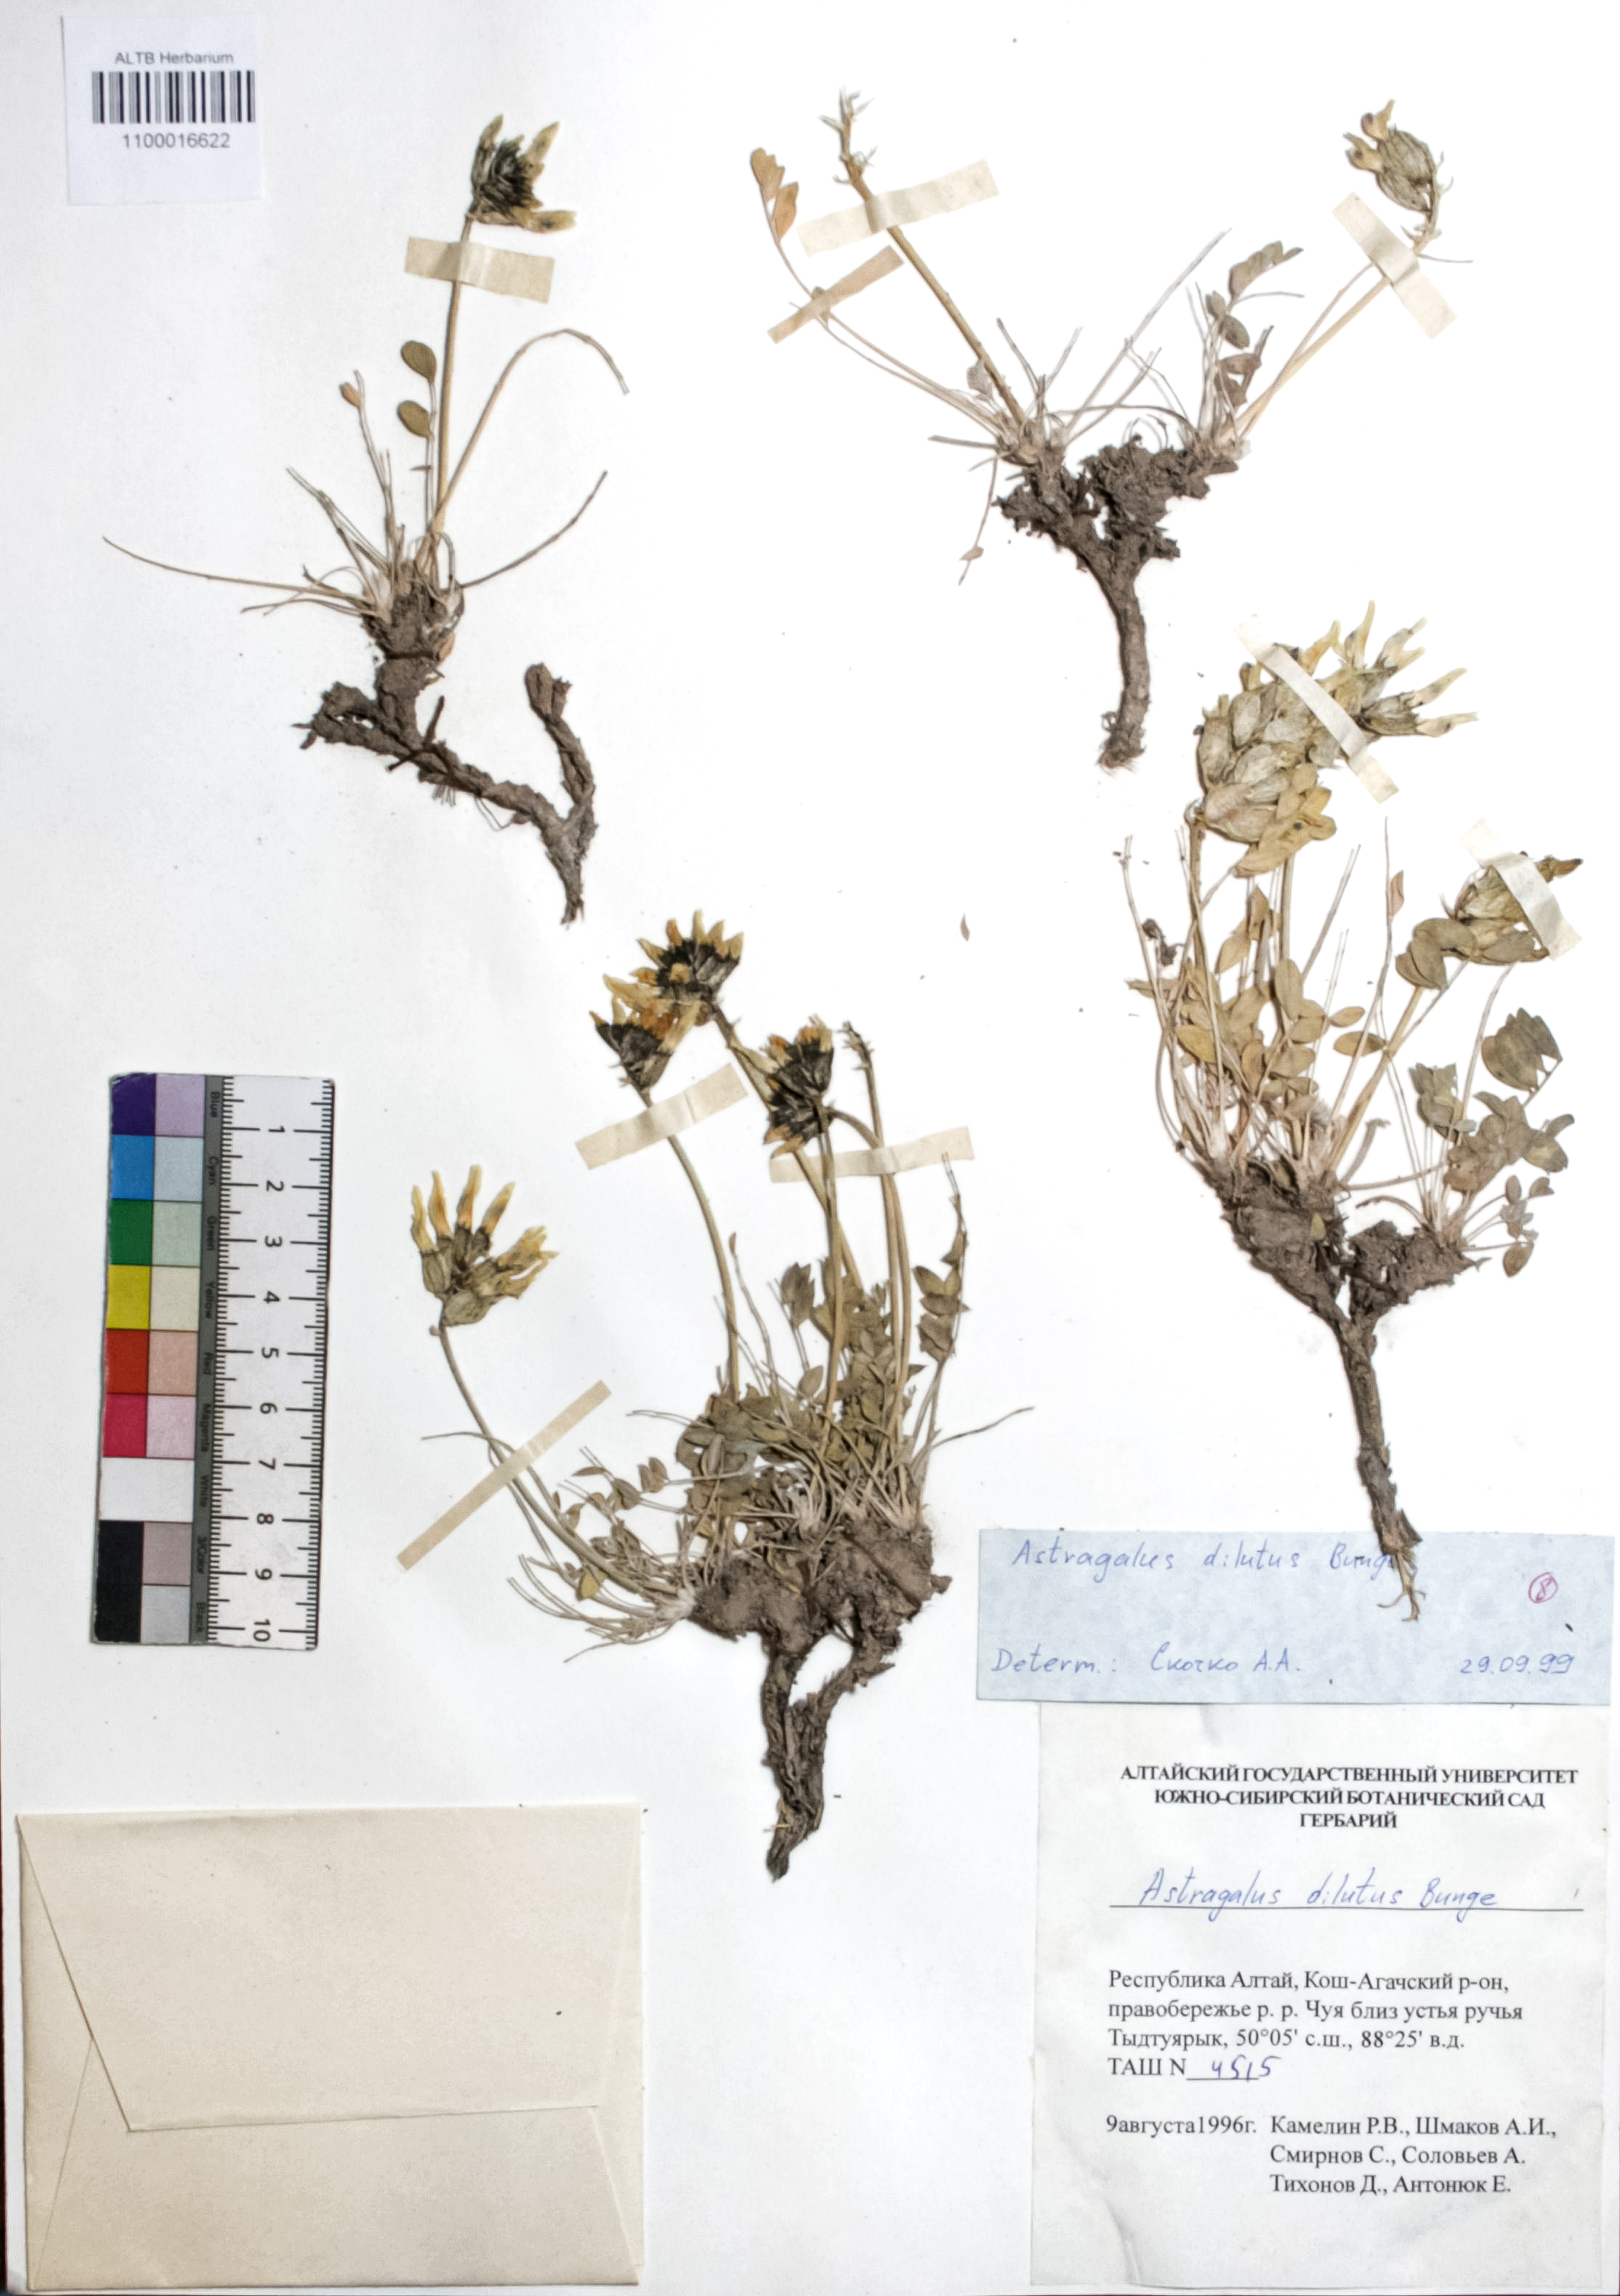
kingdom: Plantae
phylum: Tracheophyta
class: Magnoliopsida
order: Fabales
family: Fabaceae
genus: Astragalus
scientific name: Astragalus dilutus
